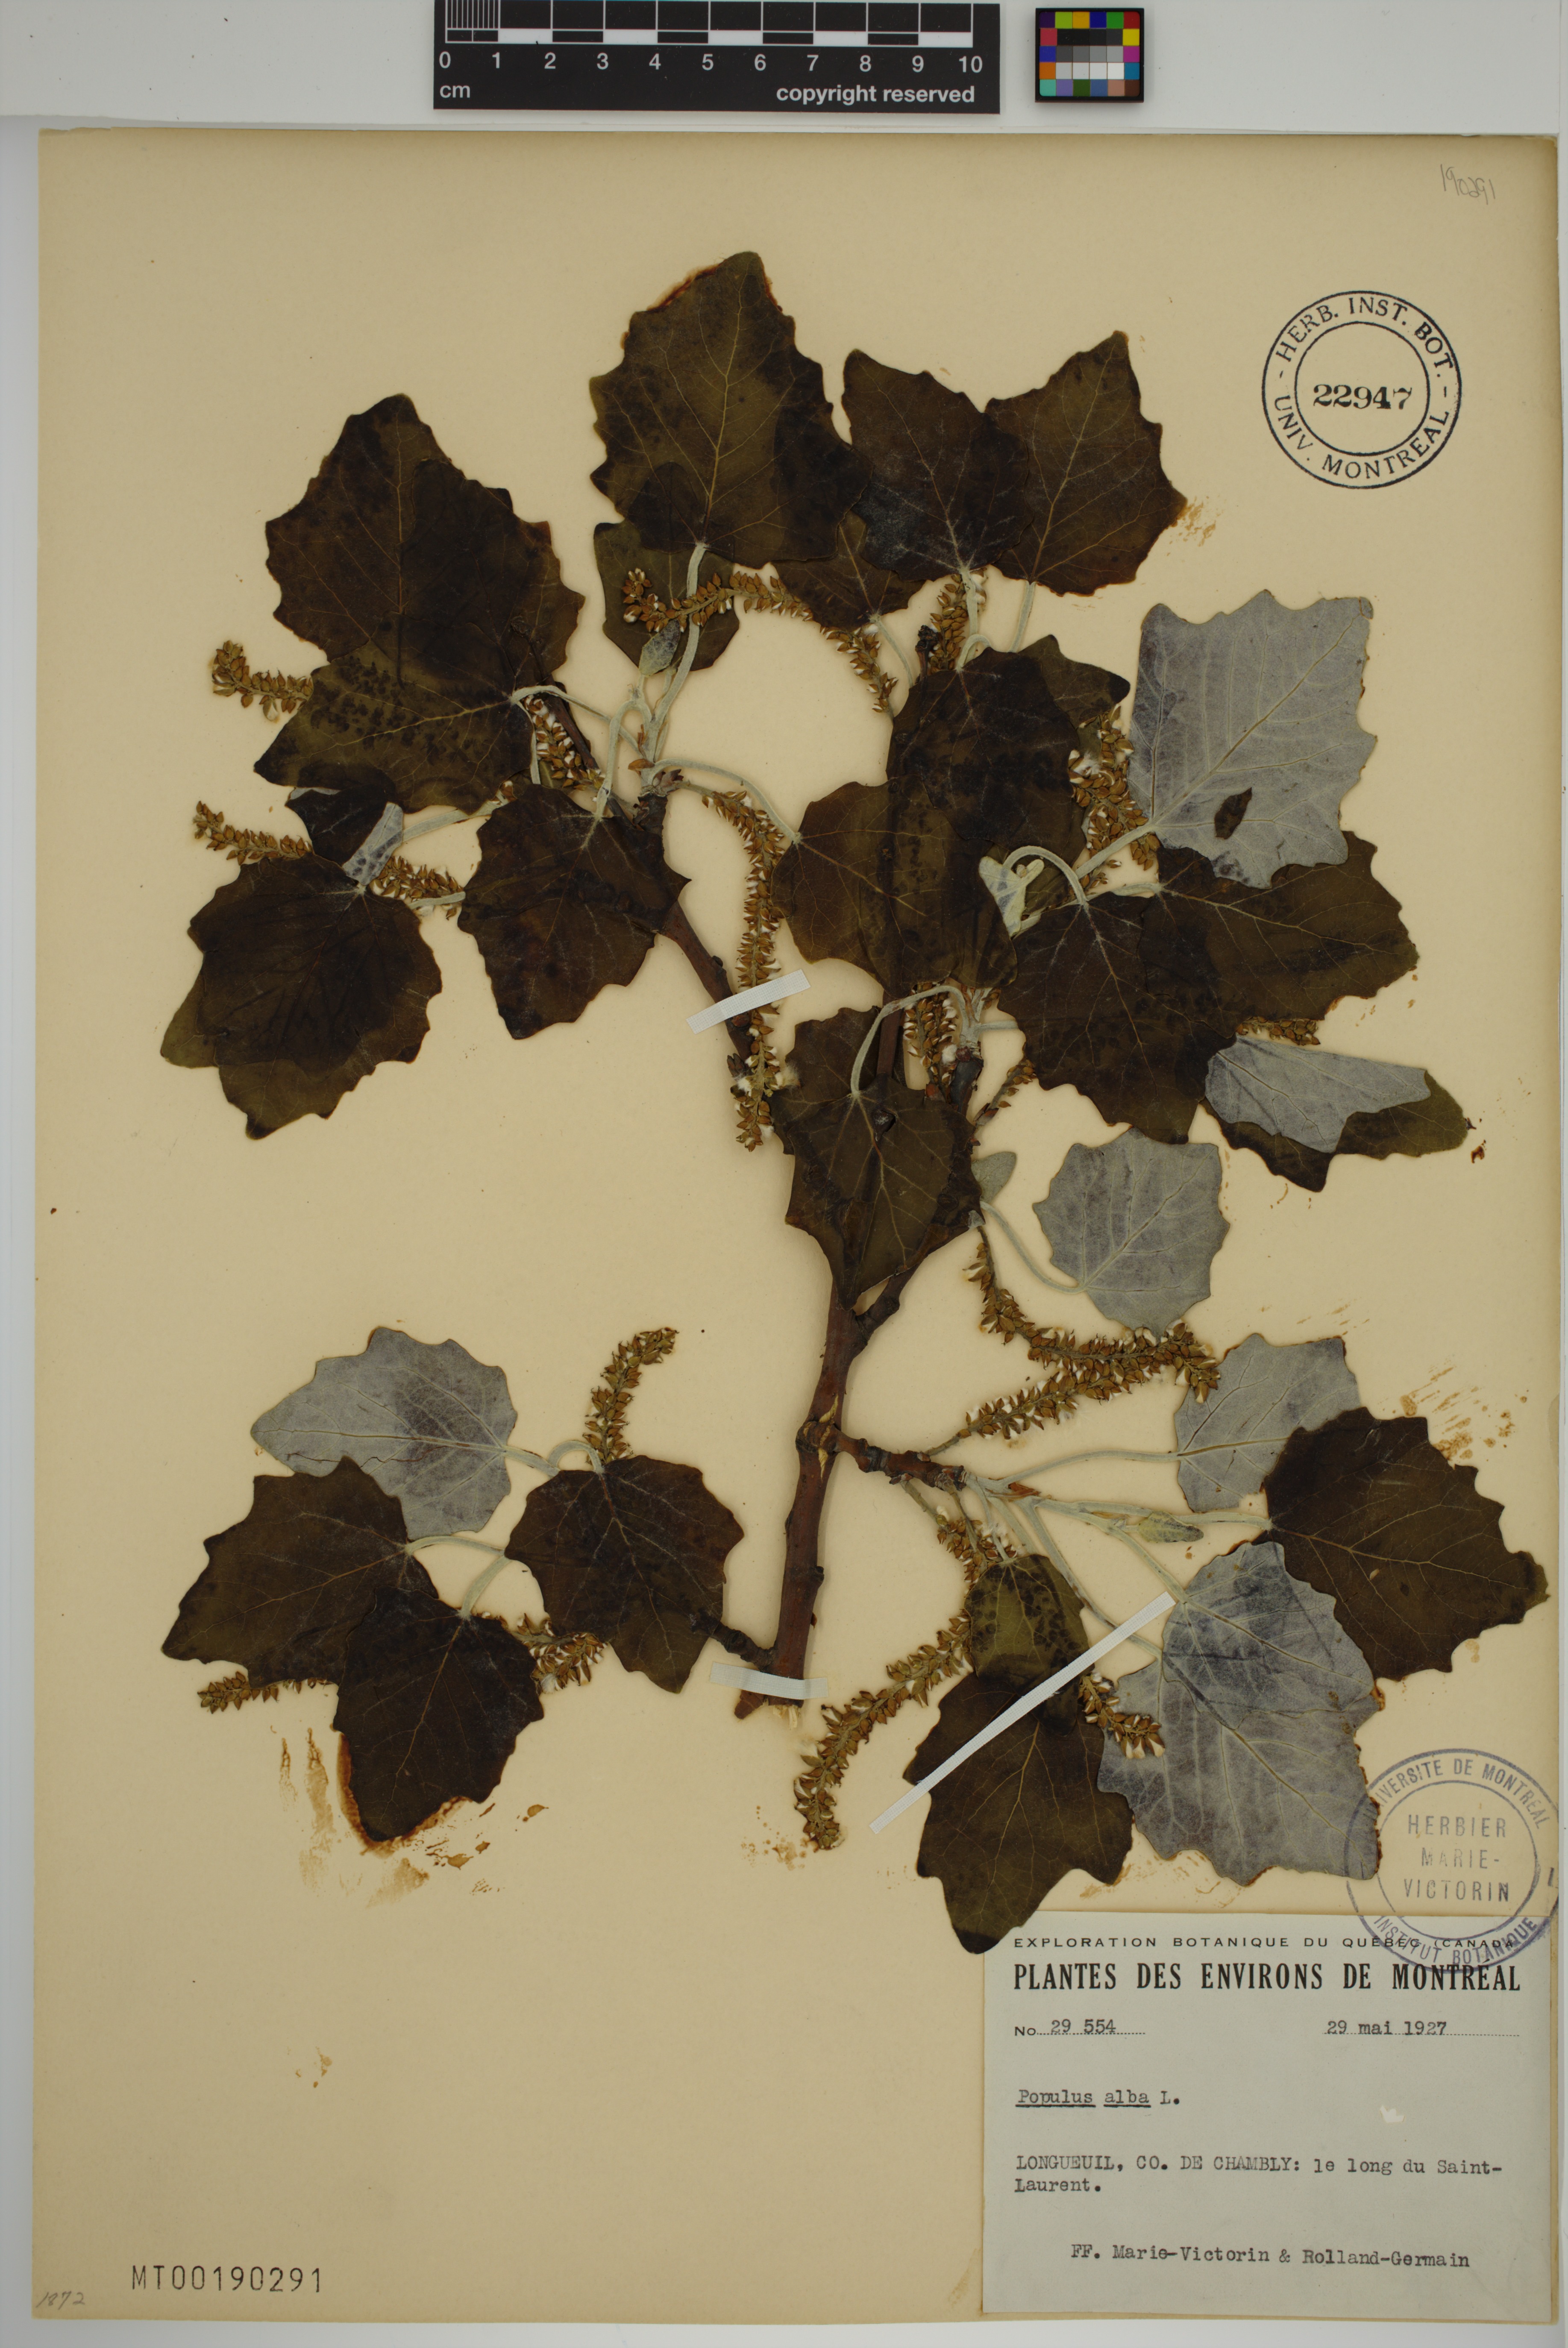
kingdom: Plantae
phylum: Tracheophyta
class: Magnoliopsida
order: Malpighiales
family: Salicaceae
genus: Populus
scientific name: Populus alba
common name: White poplar
